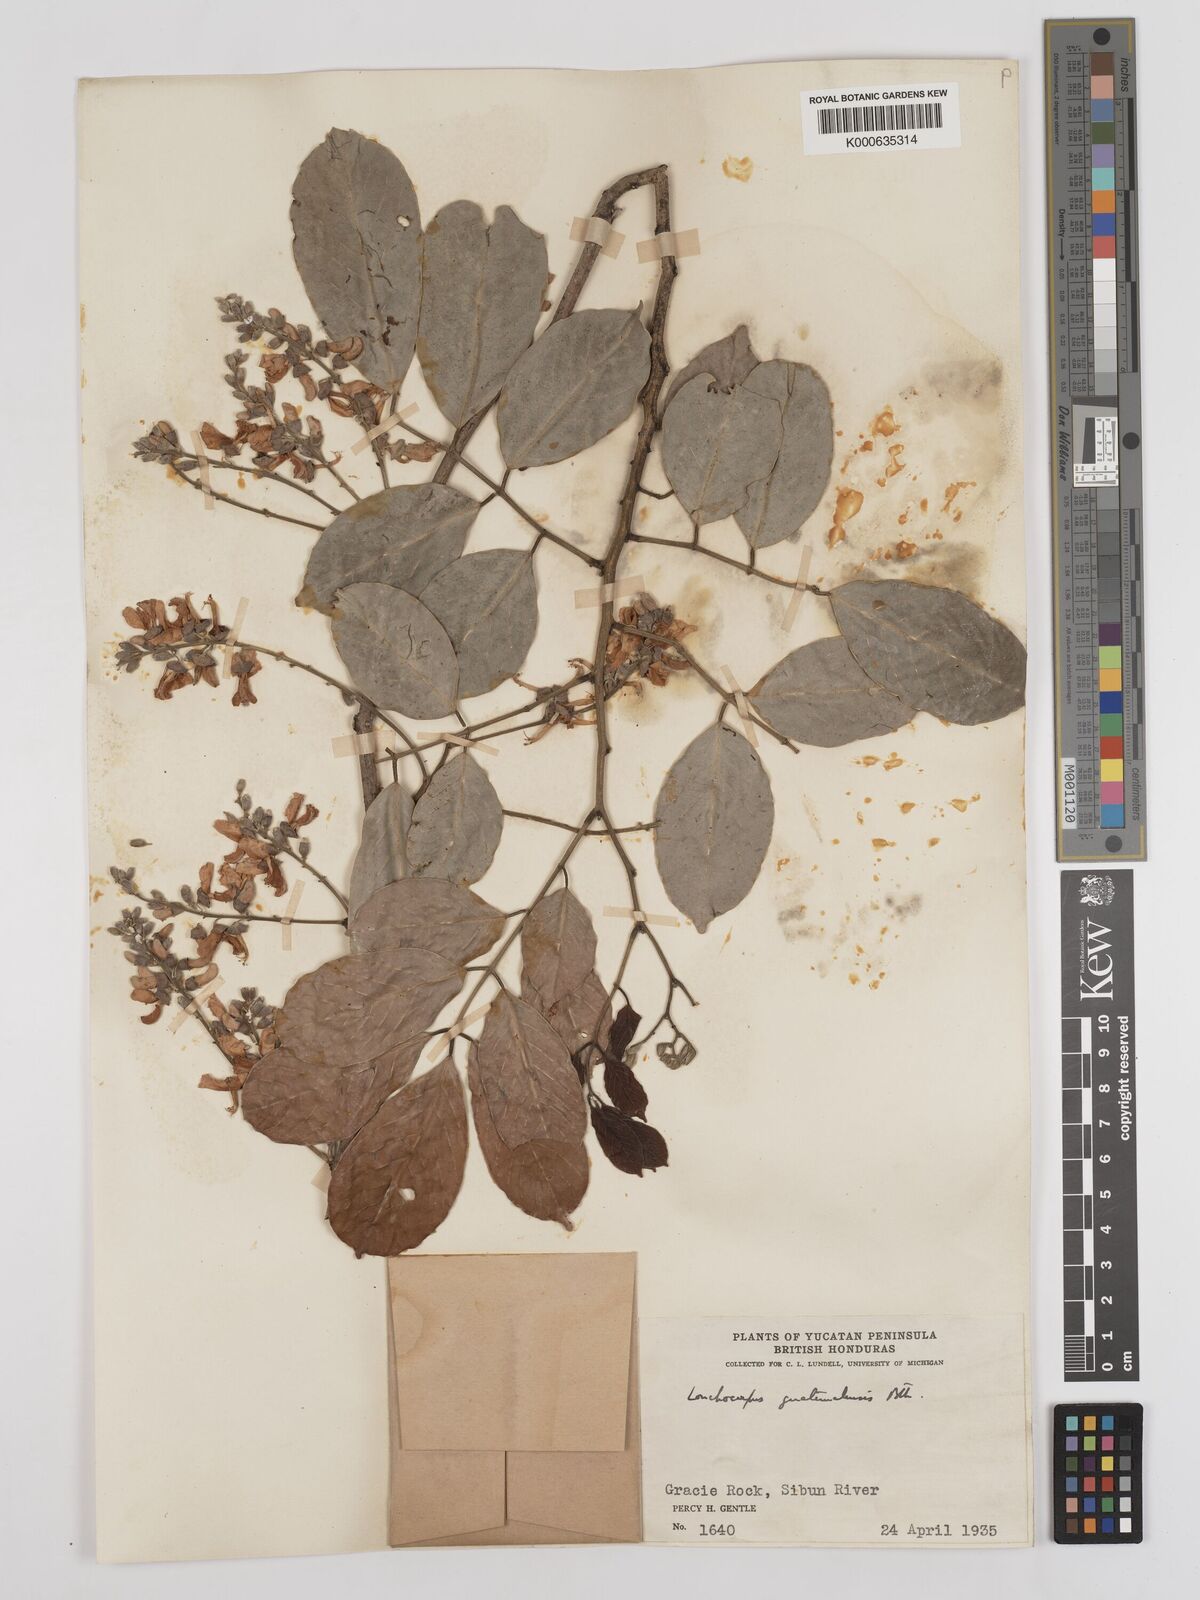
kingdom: Plantae
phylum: Tracheophyta
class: Magnoliopsida
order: Fabales
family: Fabaceae
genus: Lonchocarpus
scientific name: Lonchocarpus guatemalensis
